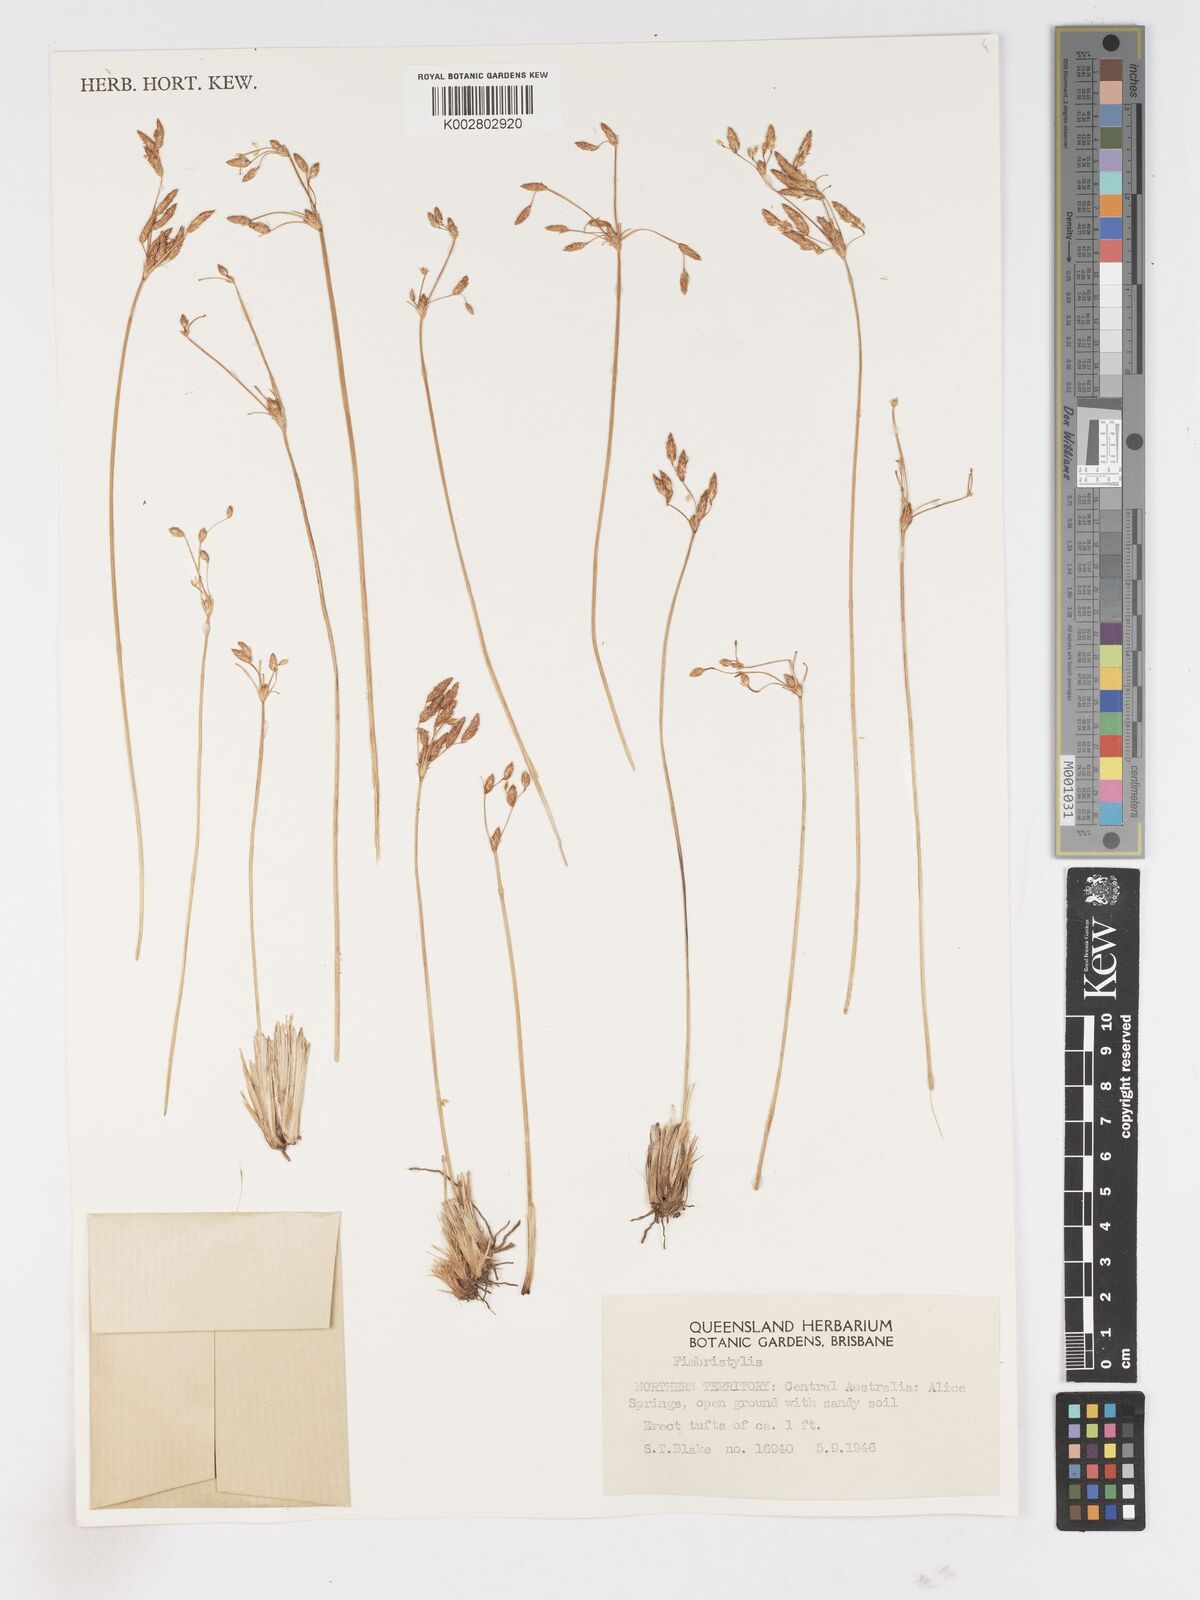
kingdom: Plantae
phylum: Tracheophyta
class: Liliopsida
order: Poales
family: Cyperaceae
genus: Fimbristylis
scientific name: Fimbristylis
